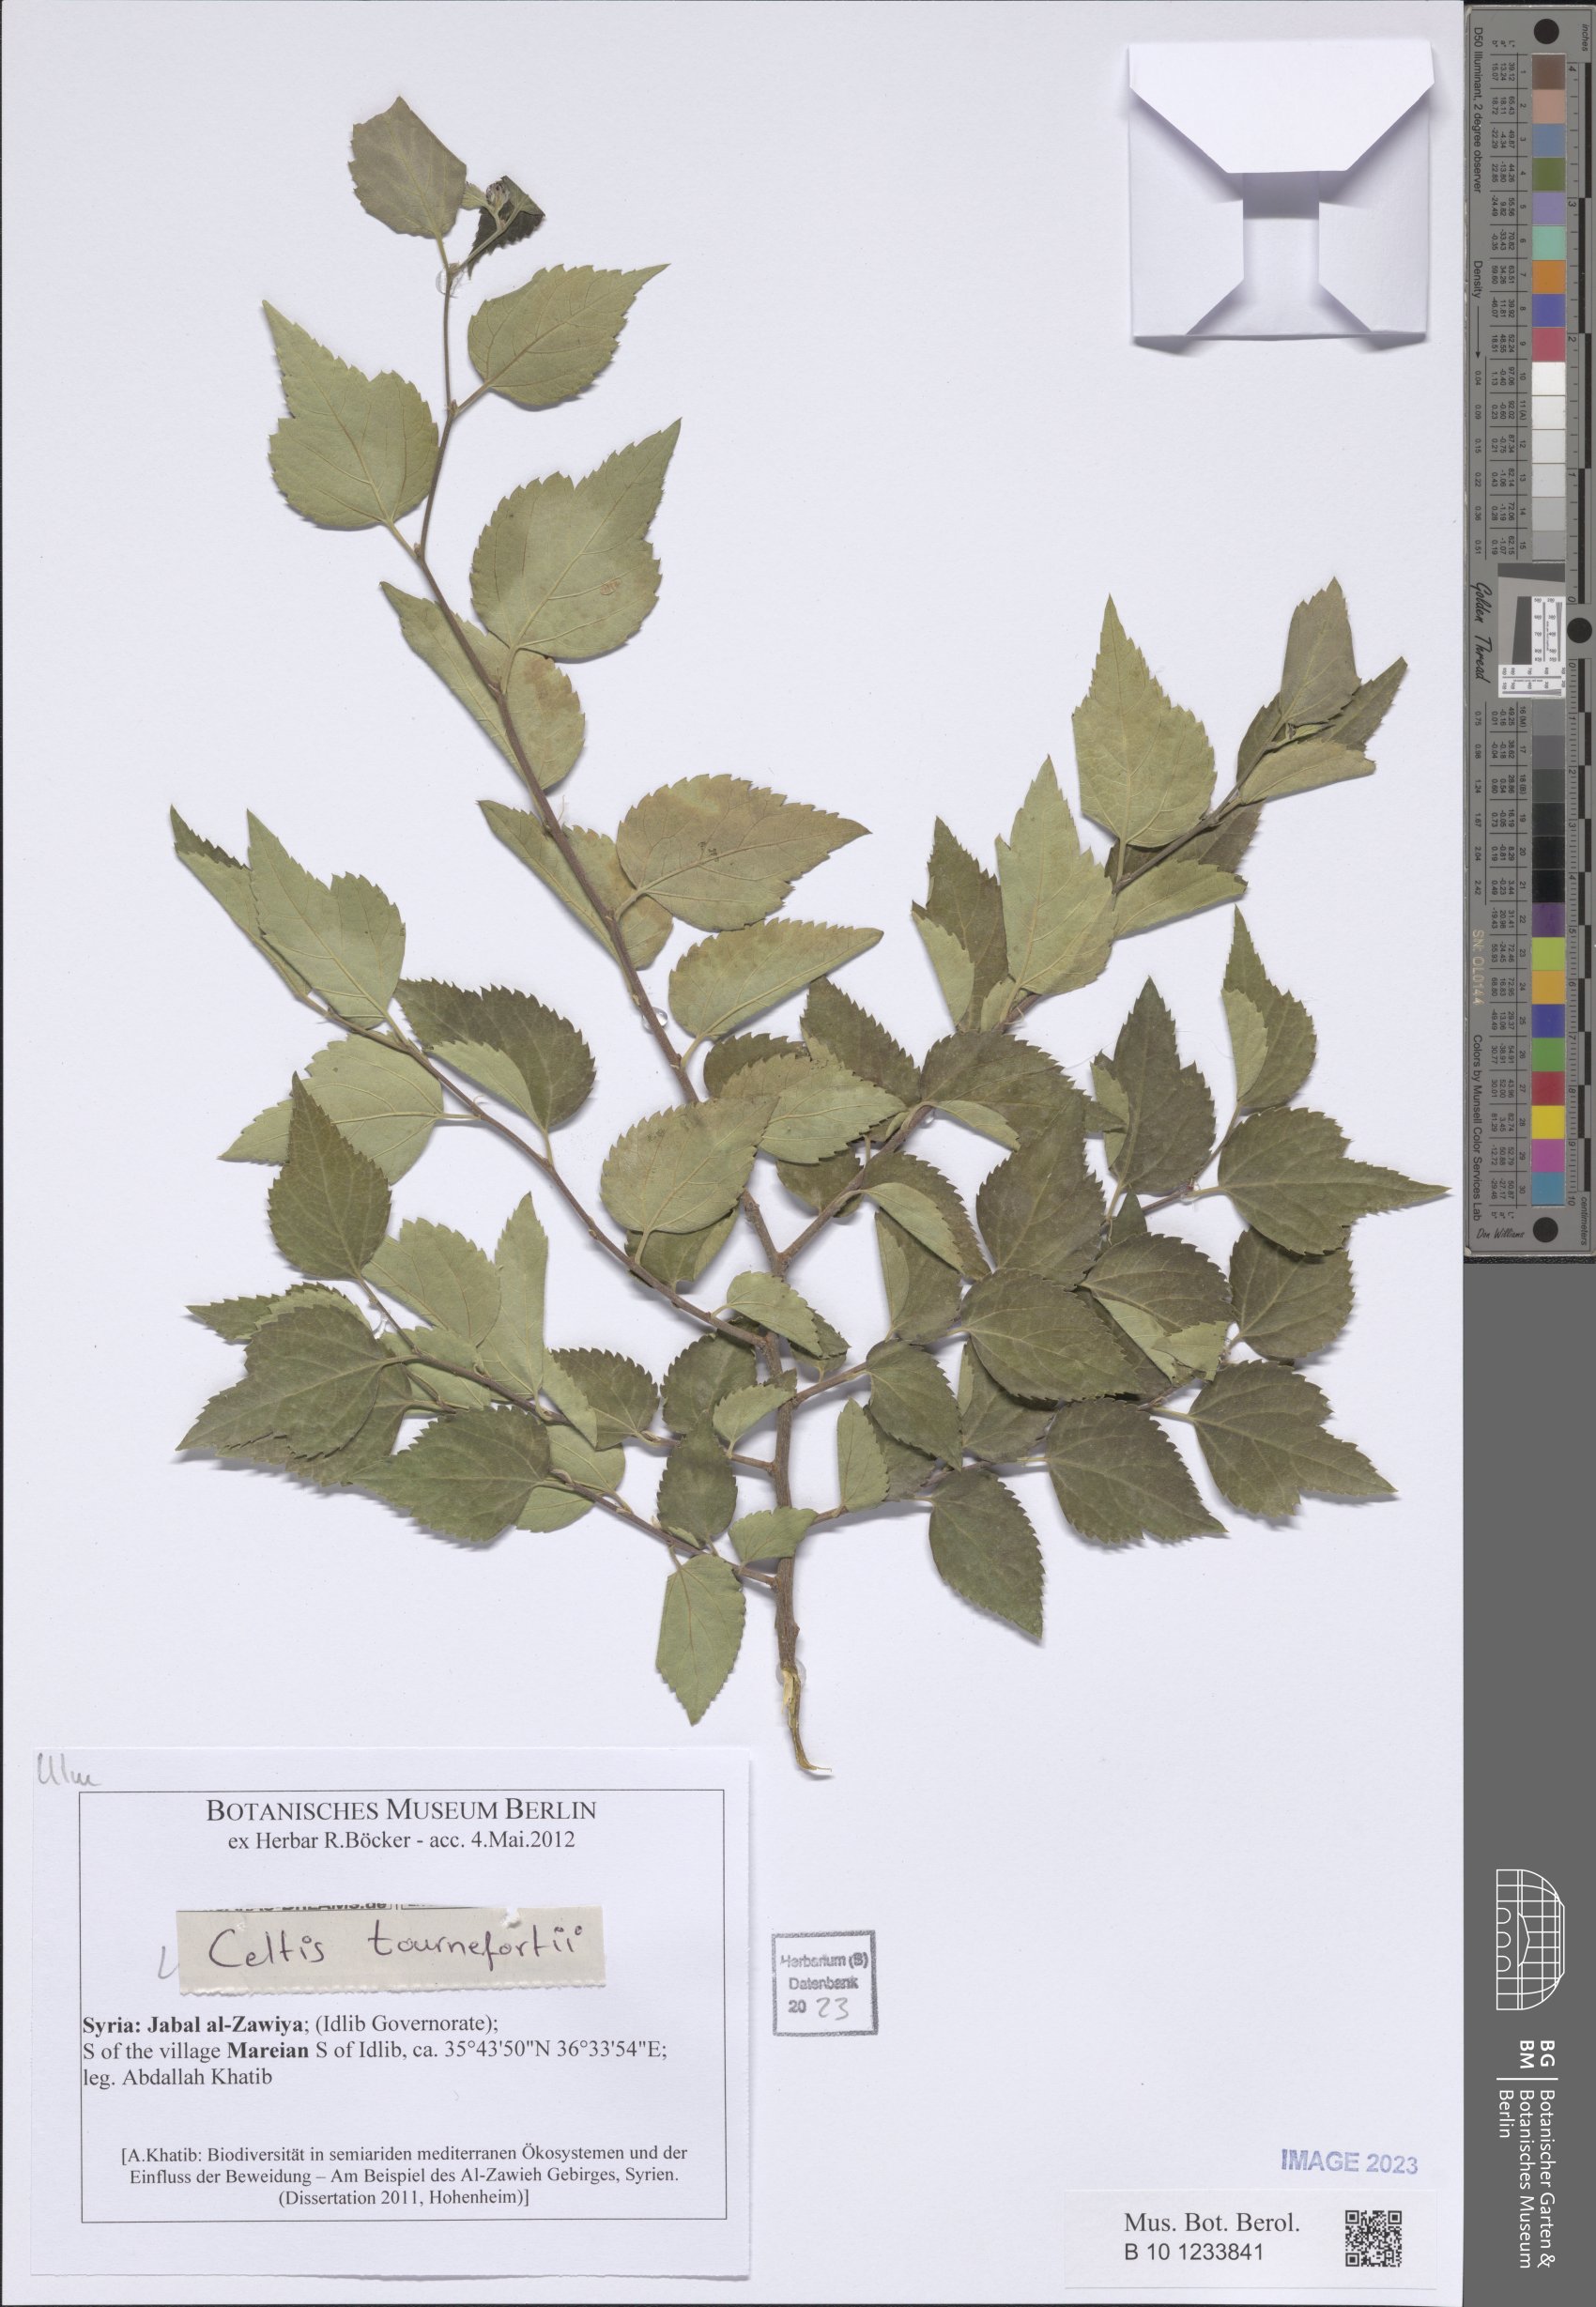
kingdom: Plantae
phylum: Tracheophyta
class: Magnoliopsida
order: Rosales
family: Cannabaceae
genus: Celtis
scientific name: Celtis tournefortii
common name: Oriental hackberry
